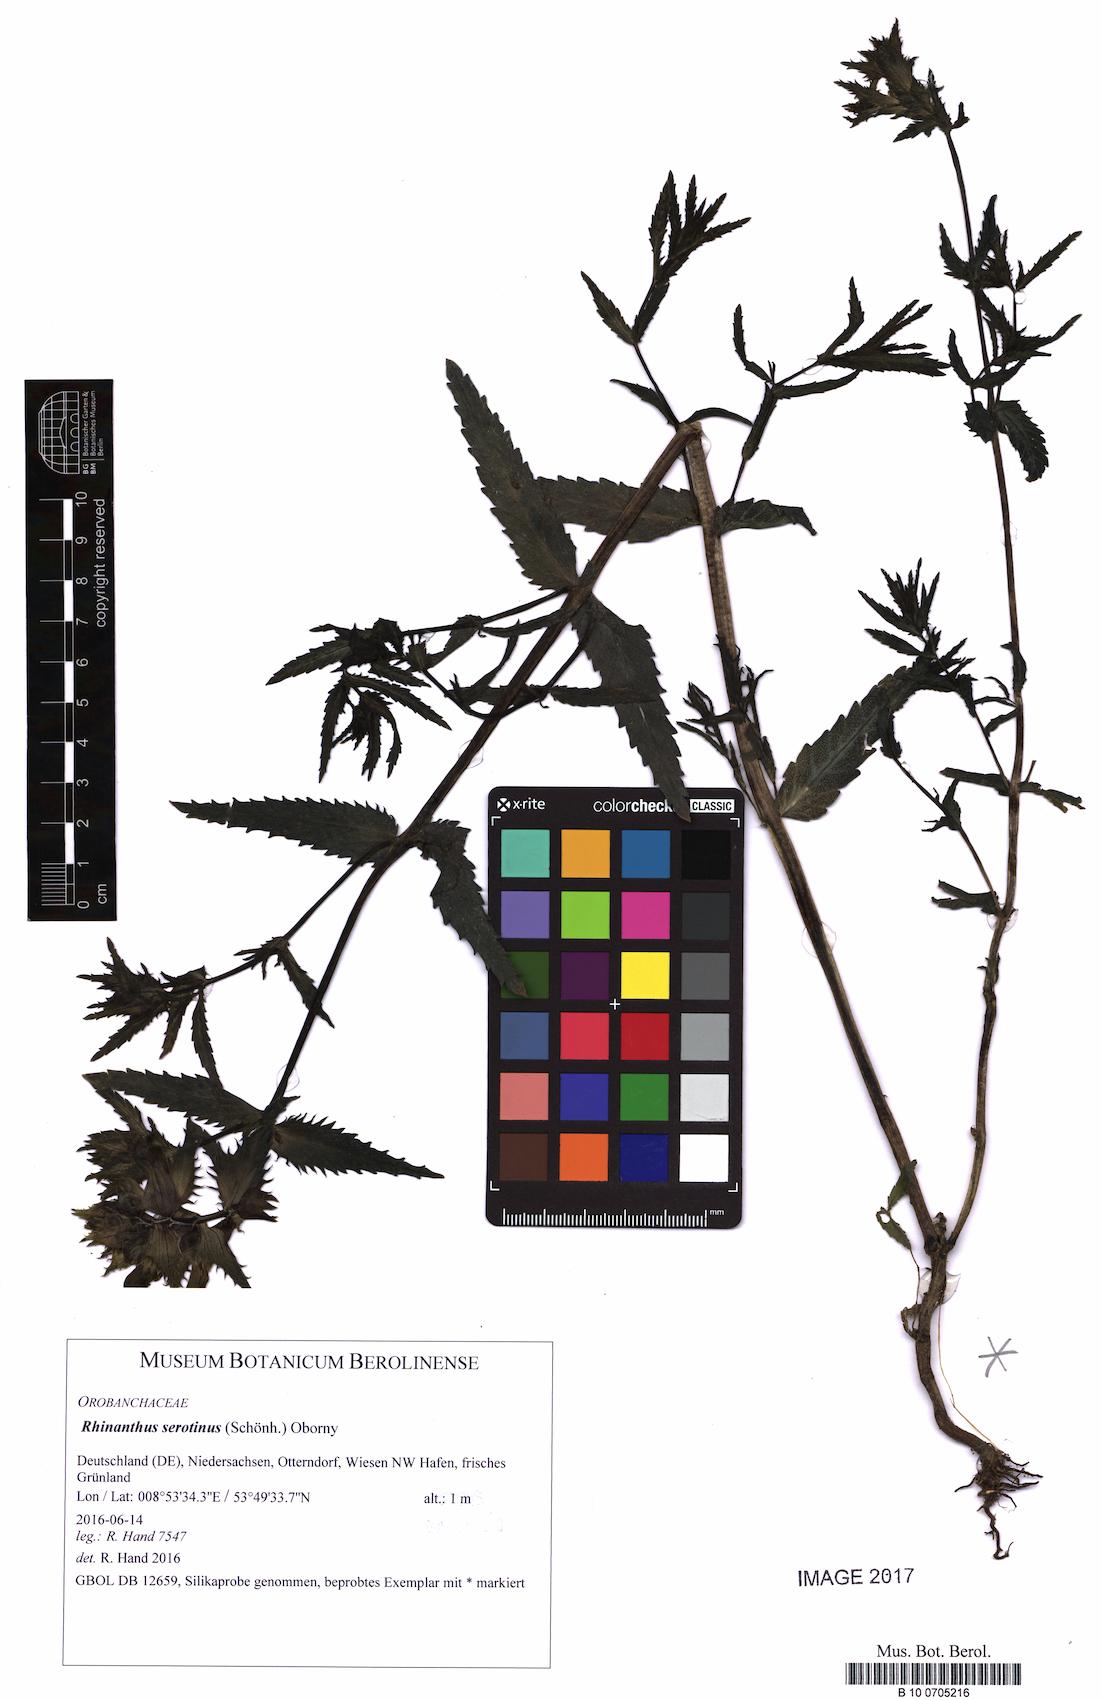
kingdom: Plantae
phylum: Tracheophyta
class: Magnoliopsida
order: Lamiales
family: Orobanchaceae
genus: Rhinanthus
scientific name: Rhinanthus serotinus
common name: Late-flowering yellow rattle
